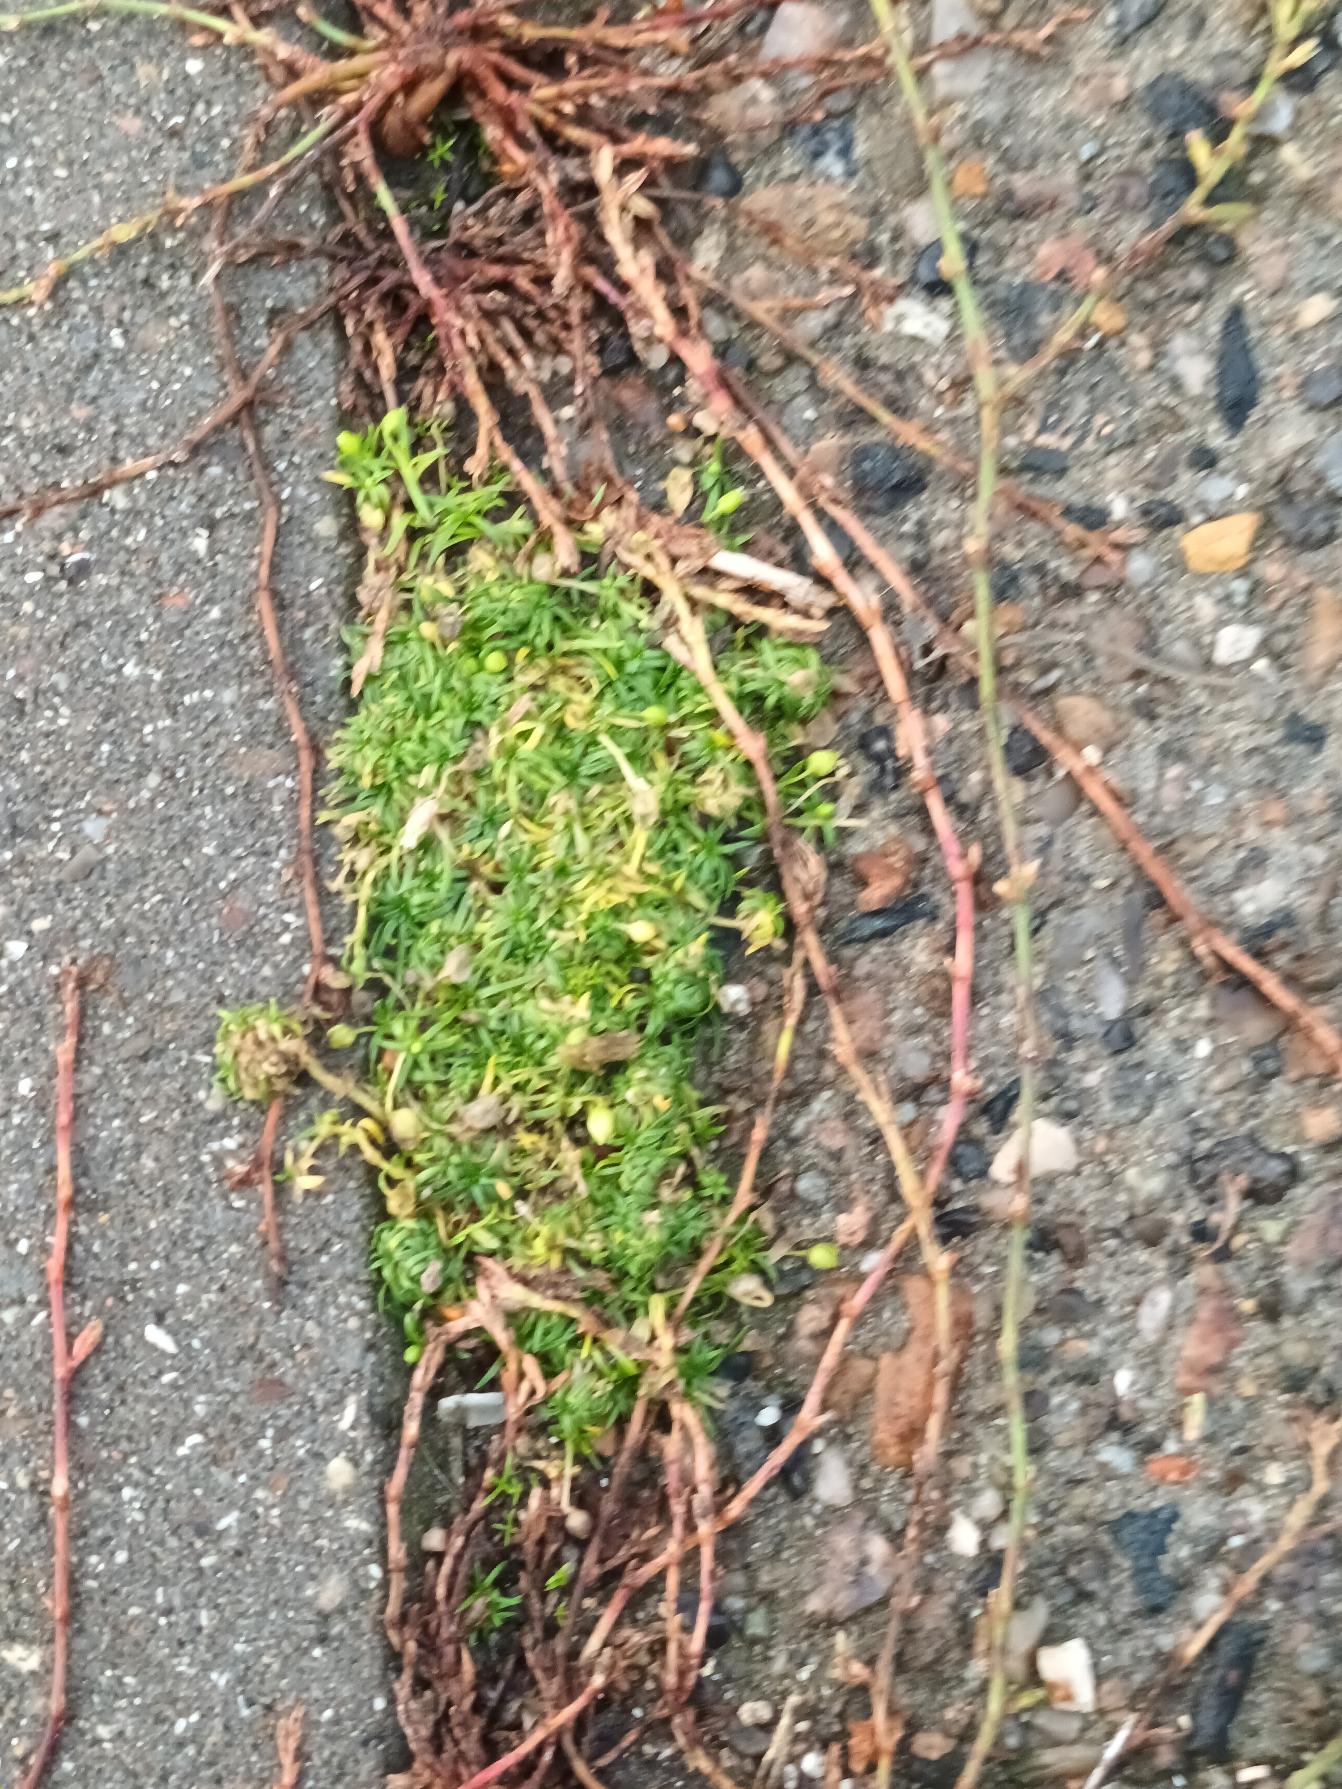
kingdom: Plantae
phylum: Tracheophyta
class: Magnoliopsida
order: Caryophyllales
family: Caryophyllaceae
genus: Sagina
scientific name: Sagina procumbens
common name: Almindelig firling
